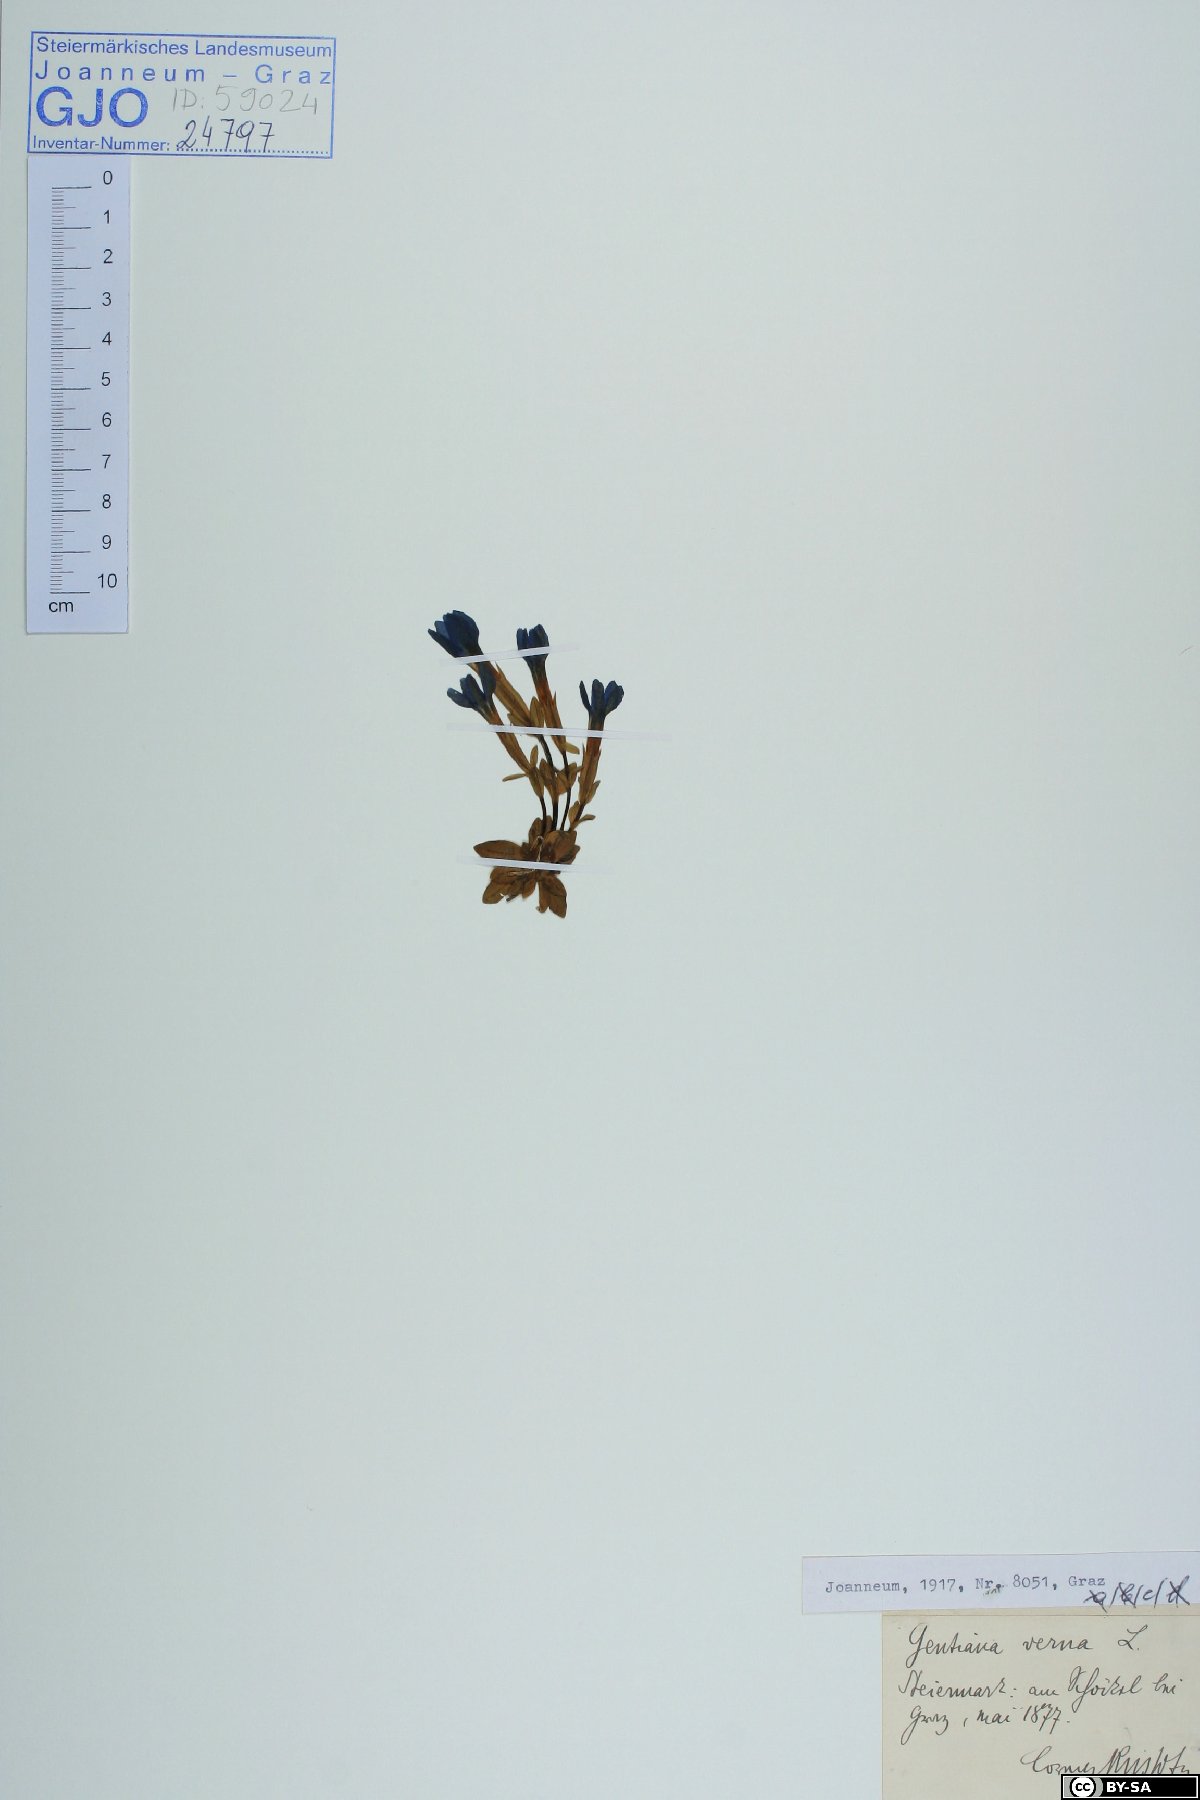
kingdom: Plantae
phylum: Tracheophyta
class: Magnoliopsida
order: Gentianales
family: Gentianaceae
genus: Gentiana
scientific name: Gentiana verna
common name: Spring gentian
